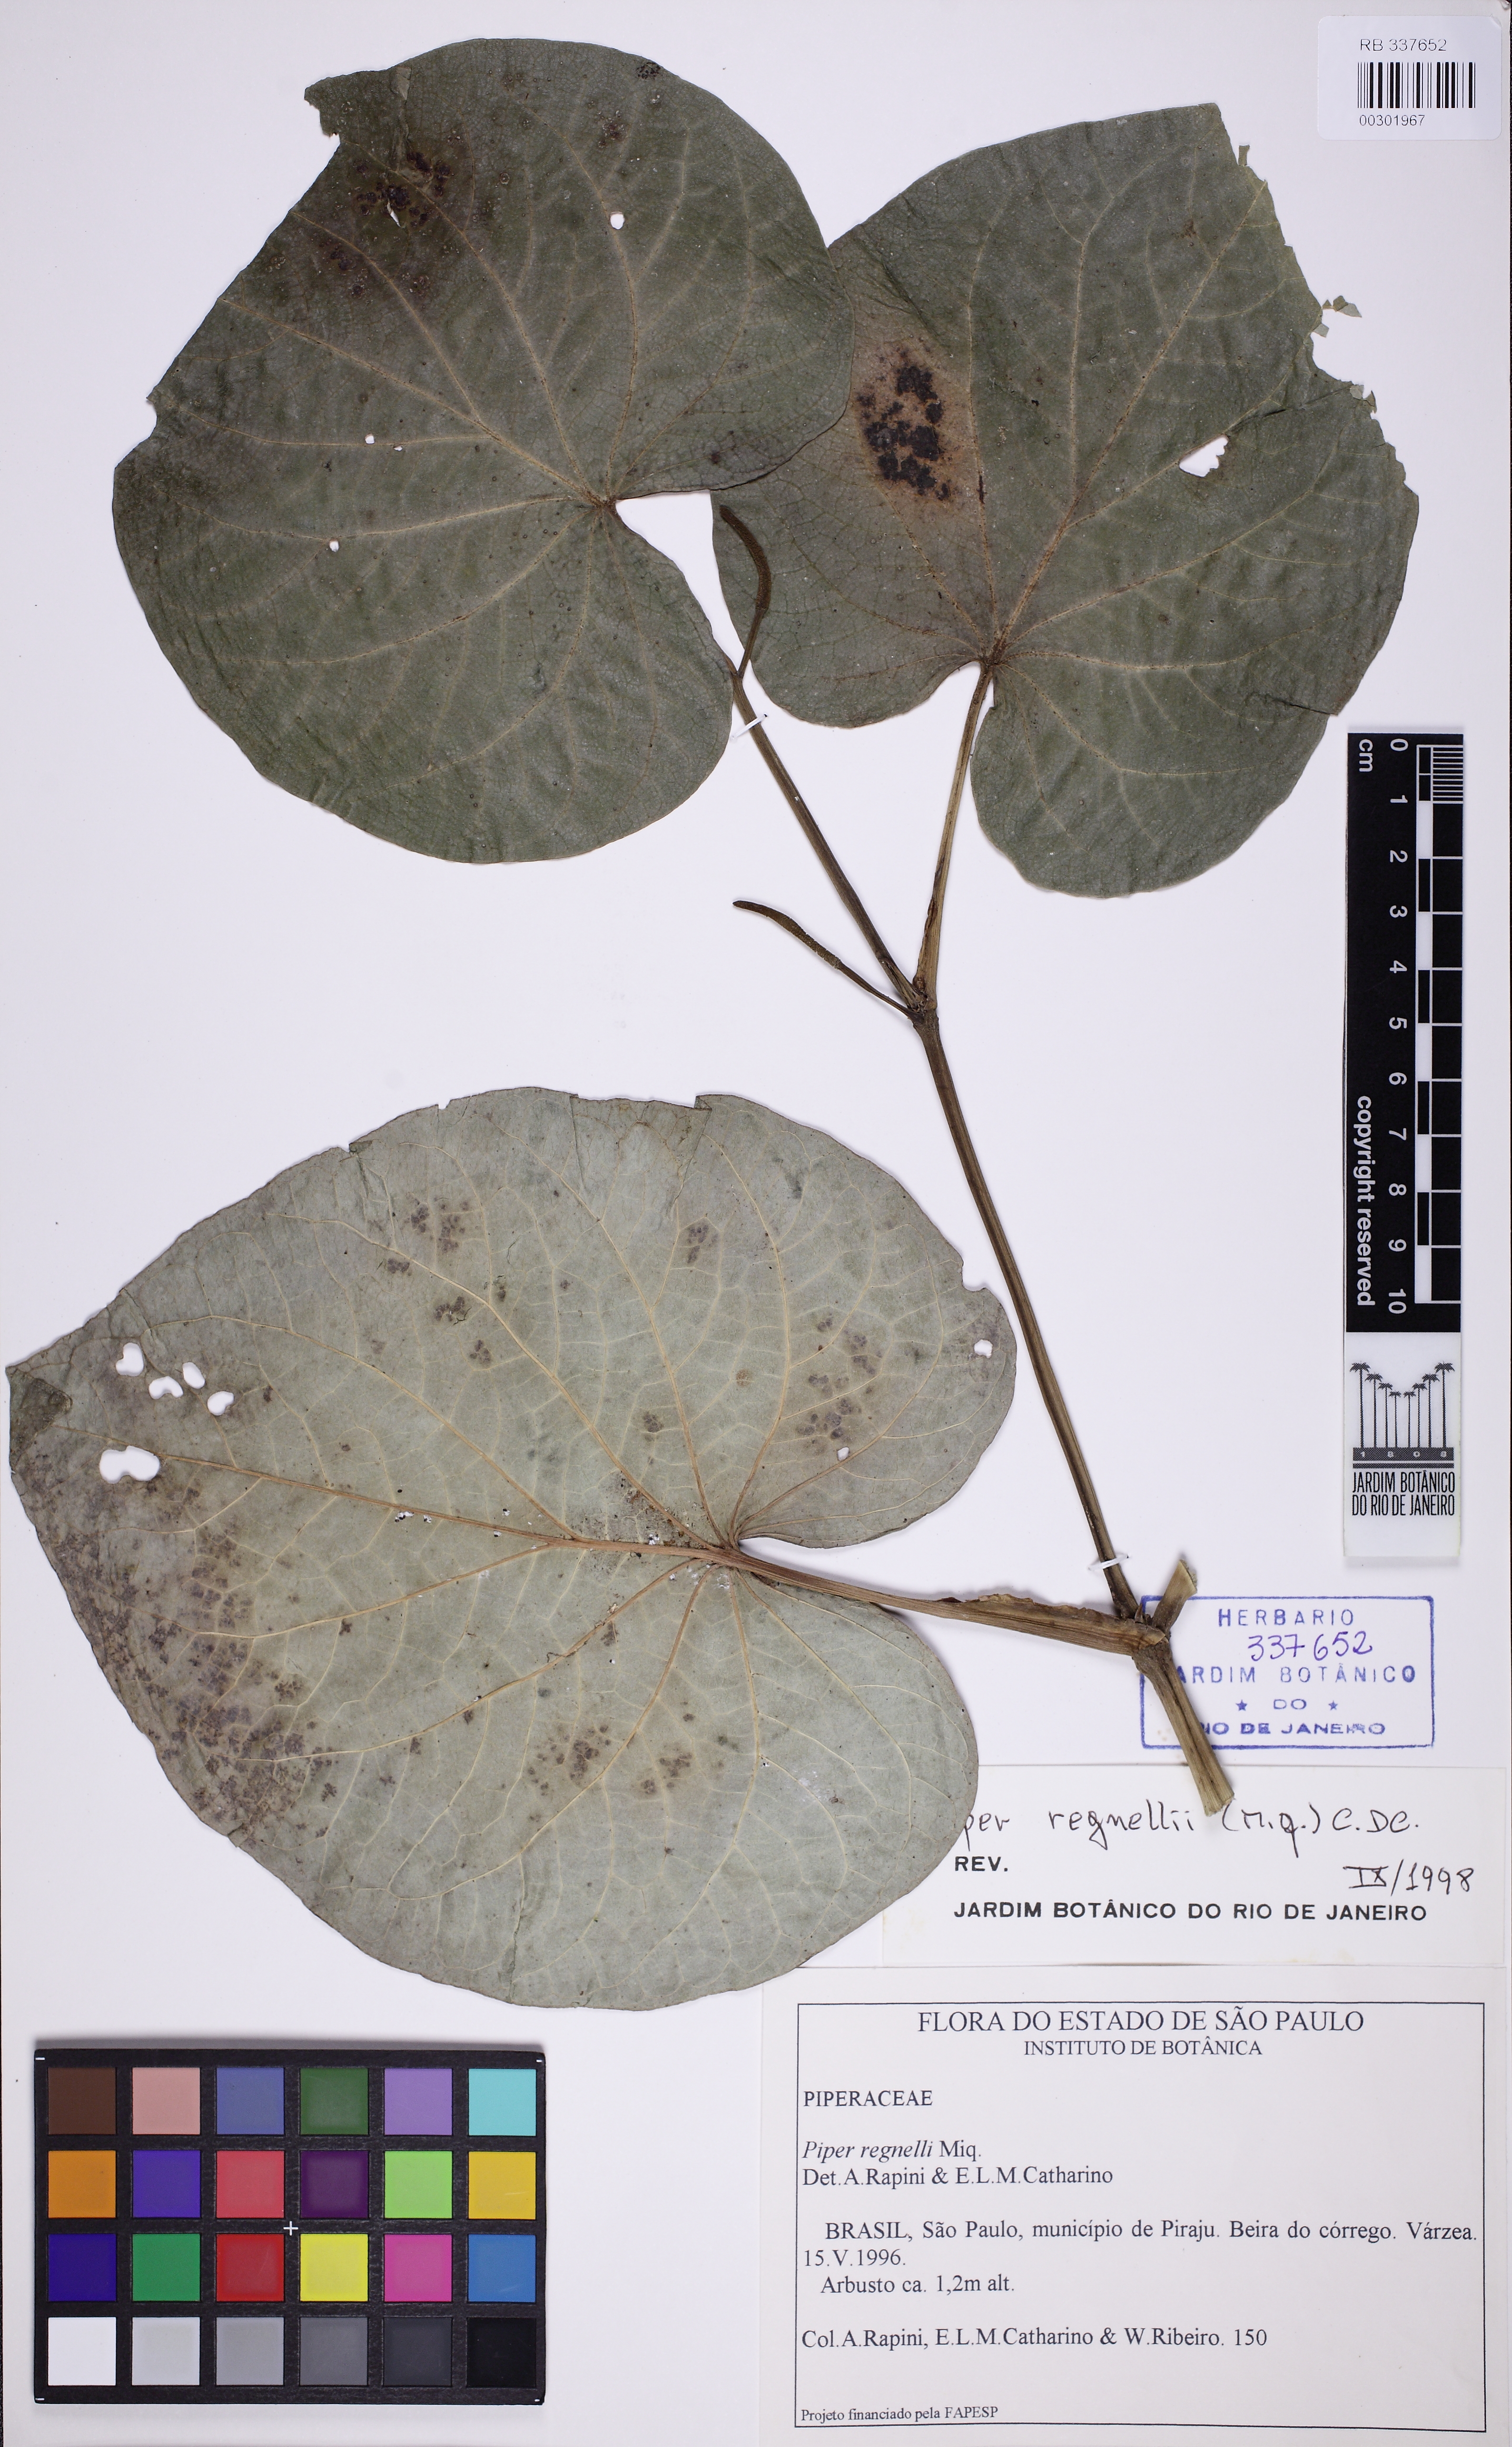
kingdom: Plantae
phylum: Tracheophyta
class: Magnoliopsida
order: Piperales
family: Piperaceae
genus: Piper
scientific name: Piper regnellii
